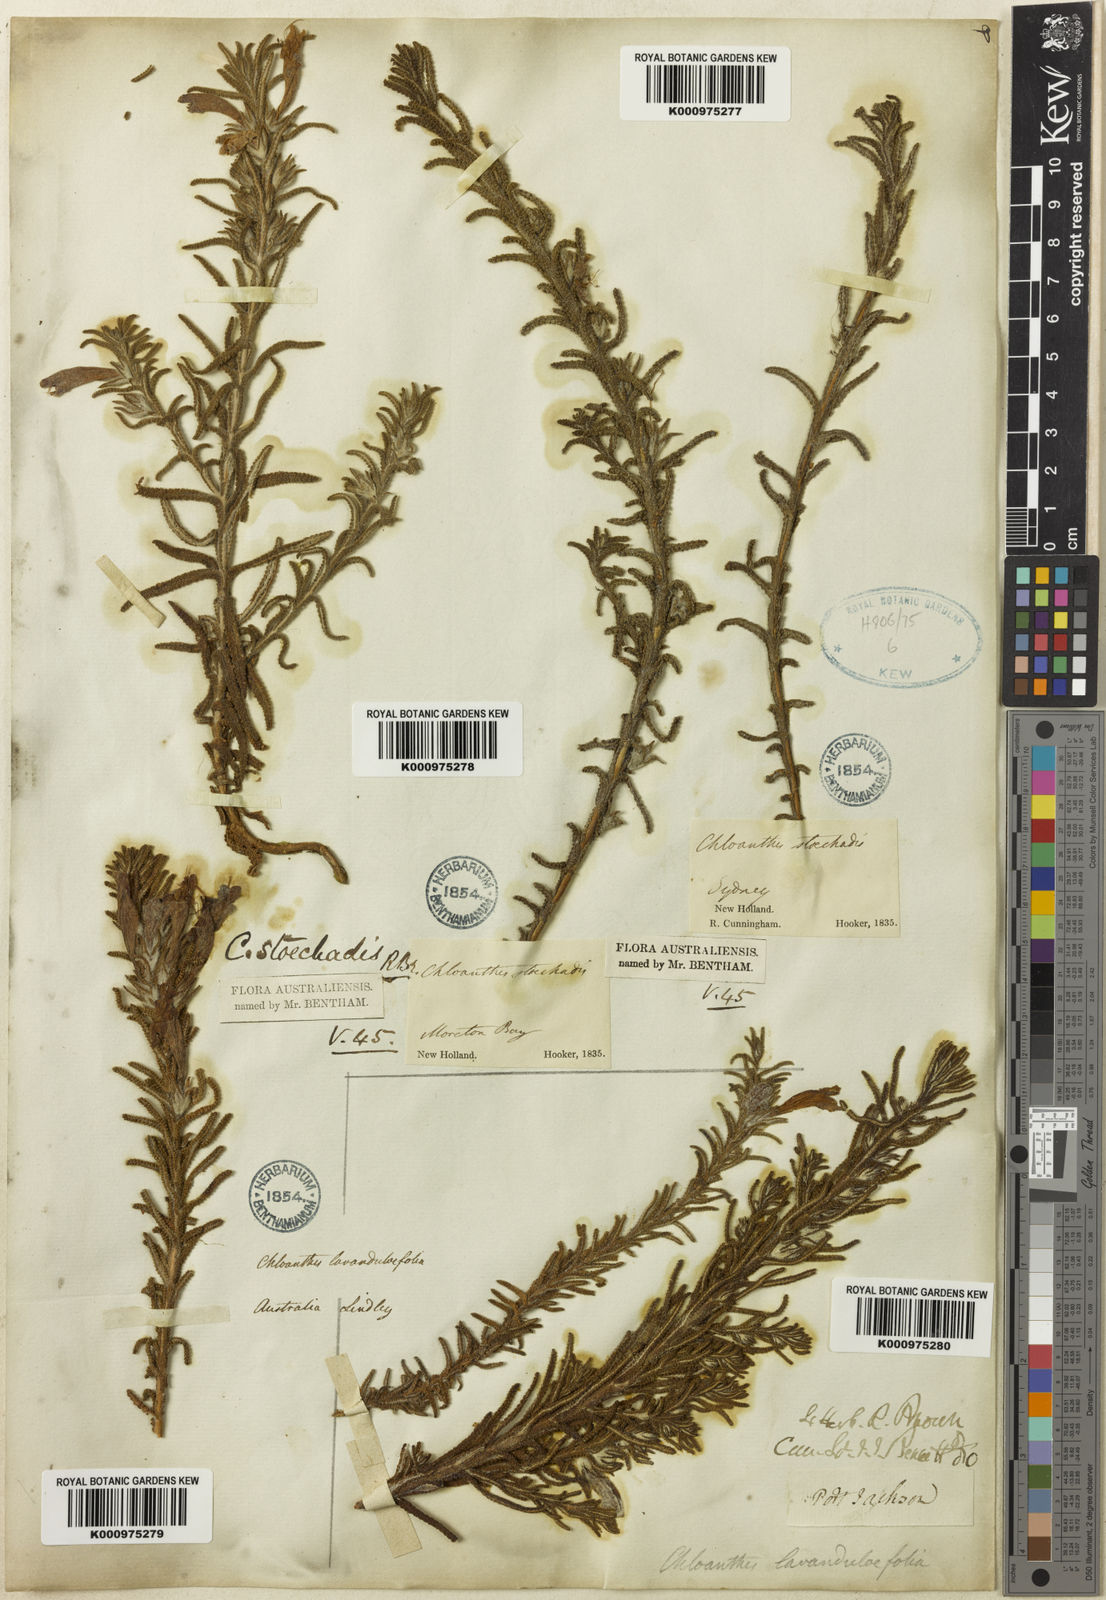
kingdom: Plantae
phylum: Tracheophyta
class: Magnoliopsida
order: Lamiales
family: Lamiaceae
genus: Chloanthes
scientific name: Chloanthes stoechadis
